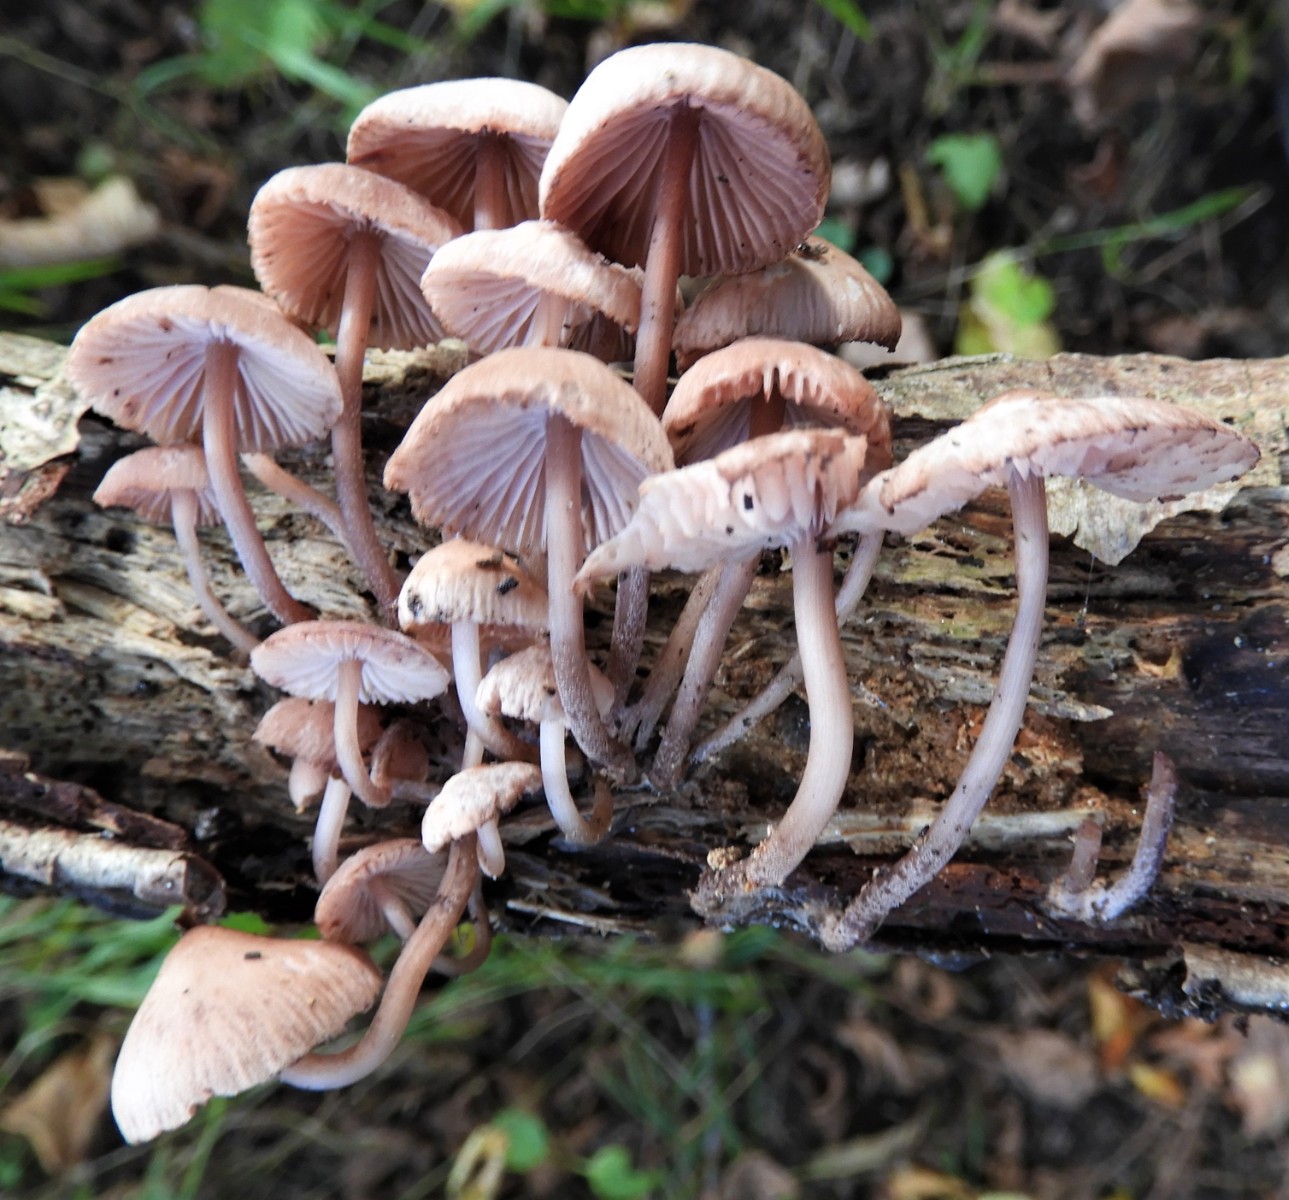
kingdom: Fungi
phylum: Basidiomycota
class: Agaricomycetes
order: Agaricales
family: Mycenaceae
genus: Mycena
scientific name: Mycena haematopus
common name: blødende huesvamp
